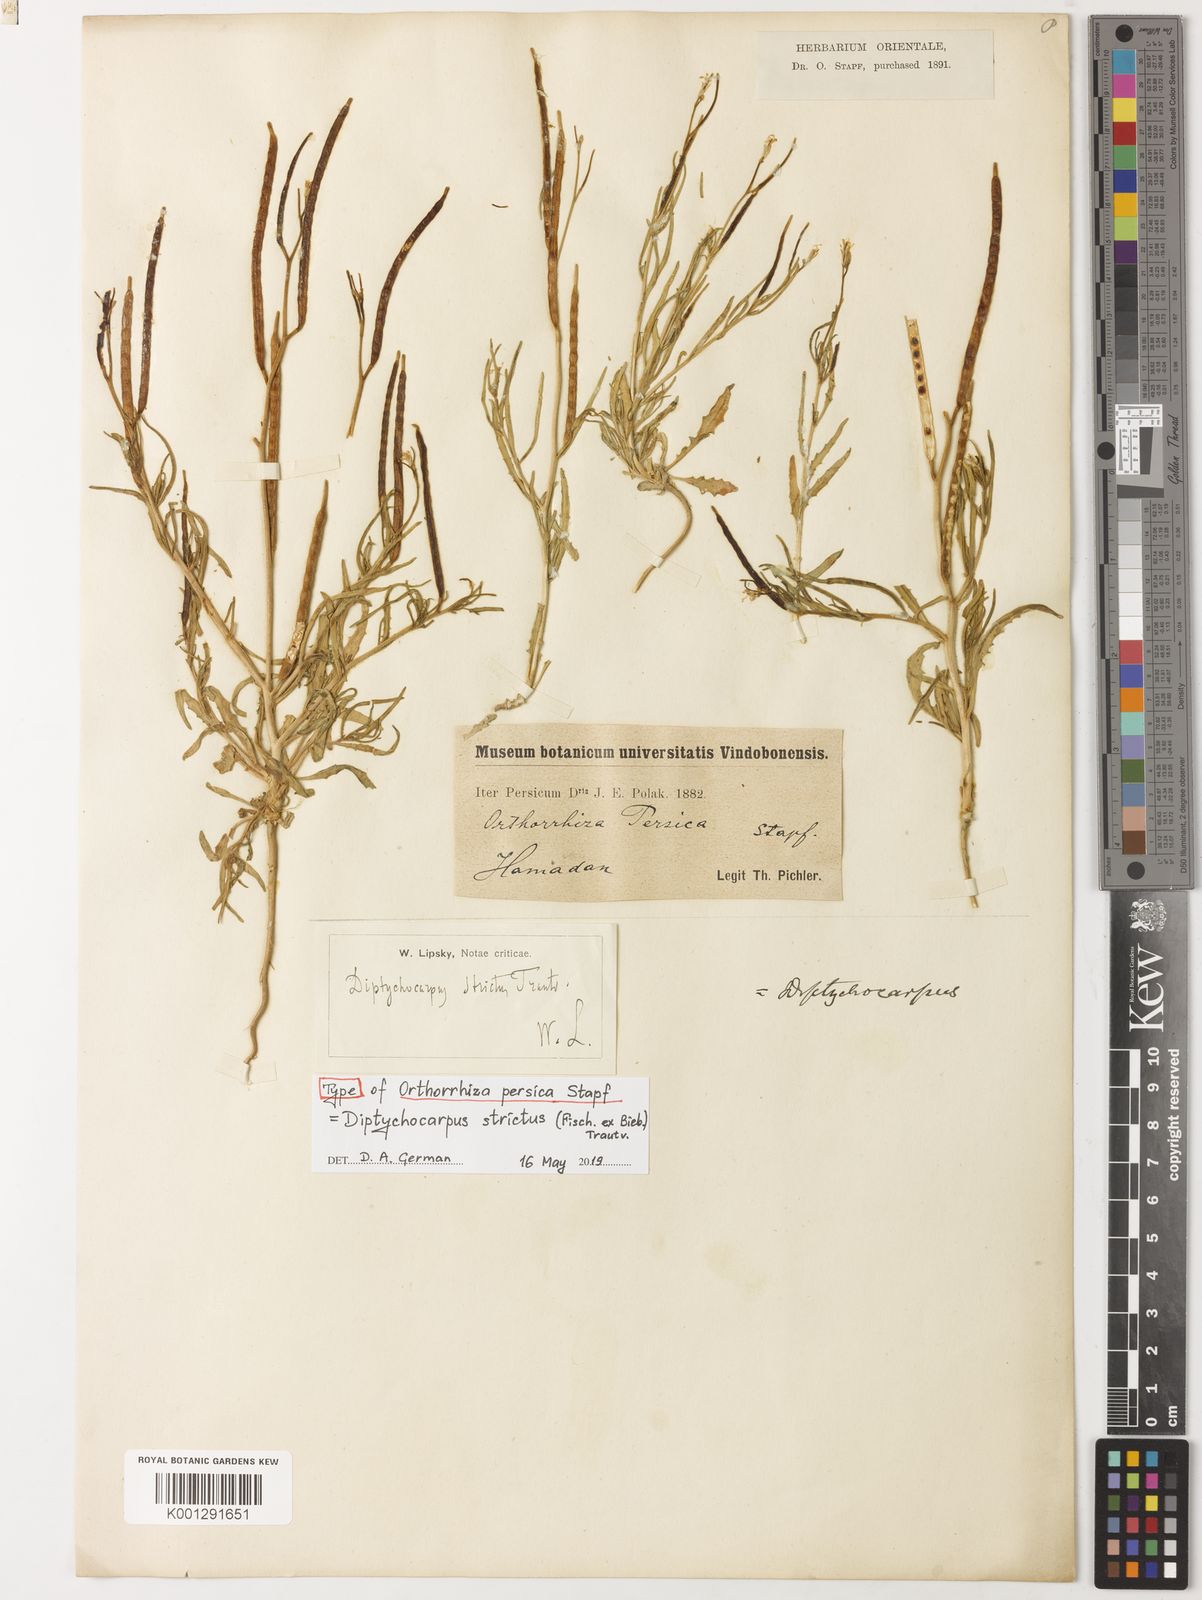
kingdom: Plantae
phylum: Tracheophyta
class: Magnoliopsida
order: Brassicales
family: Brassicaceae
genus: Diptychocarpus
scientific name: Diptychocarpus strictus
